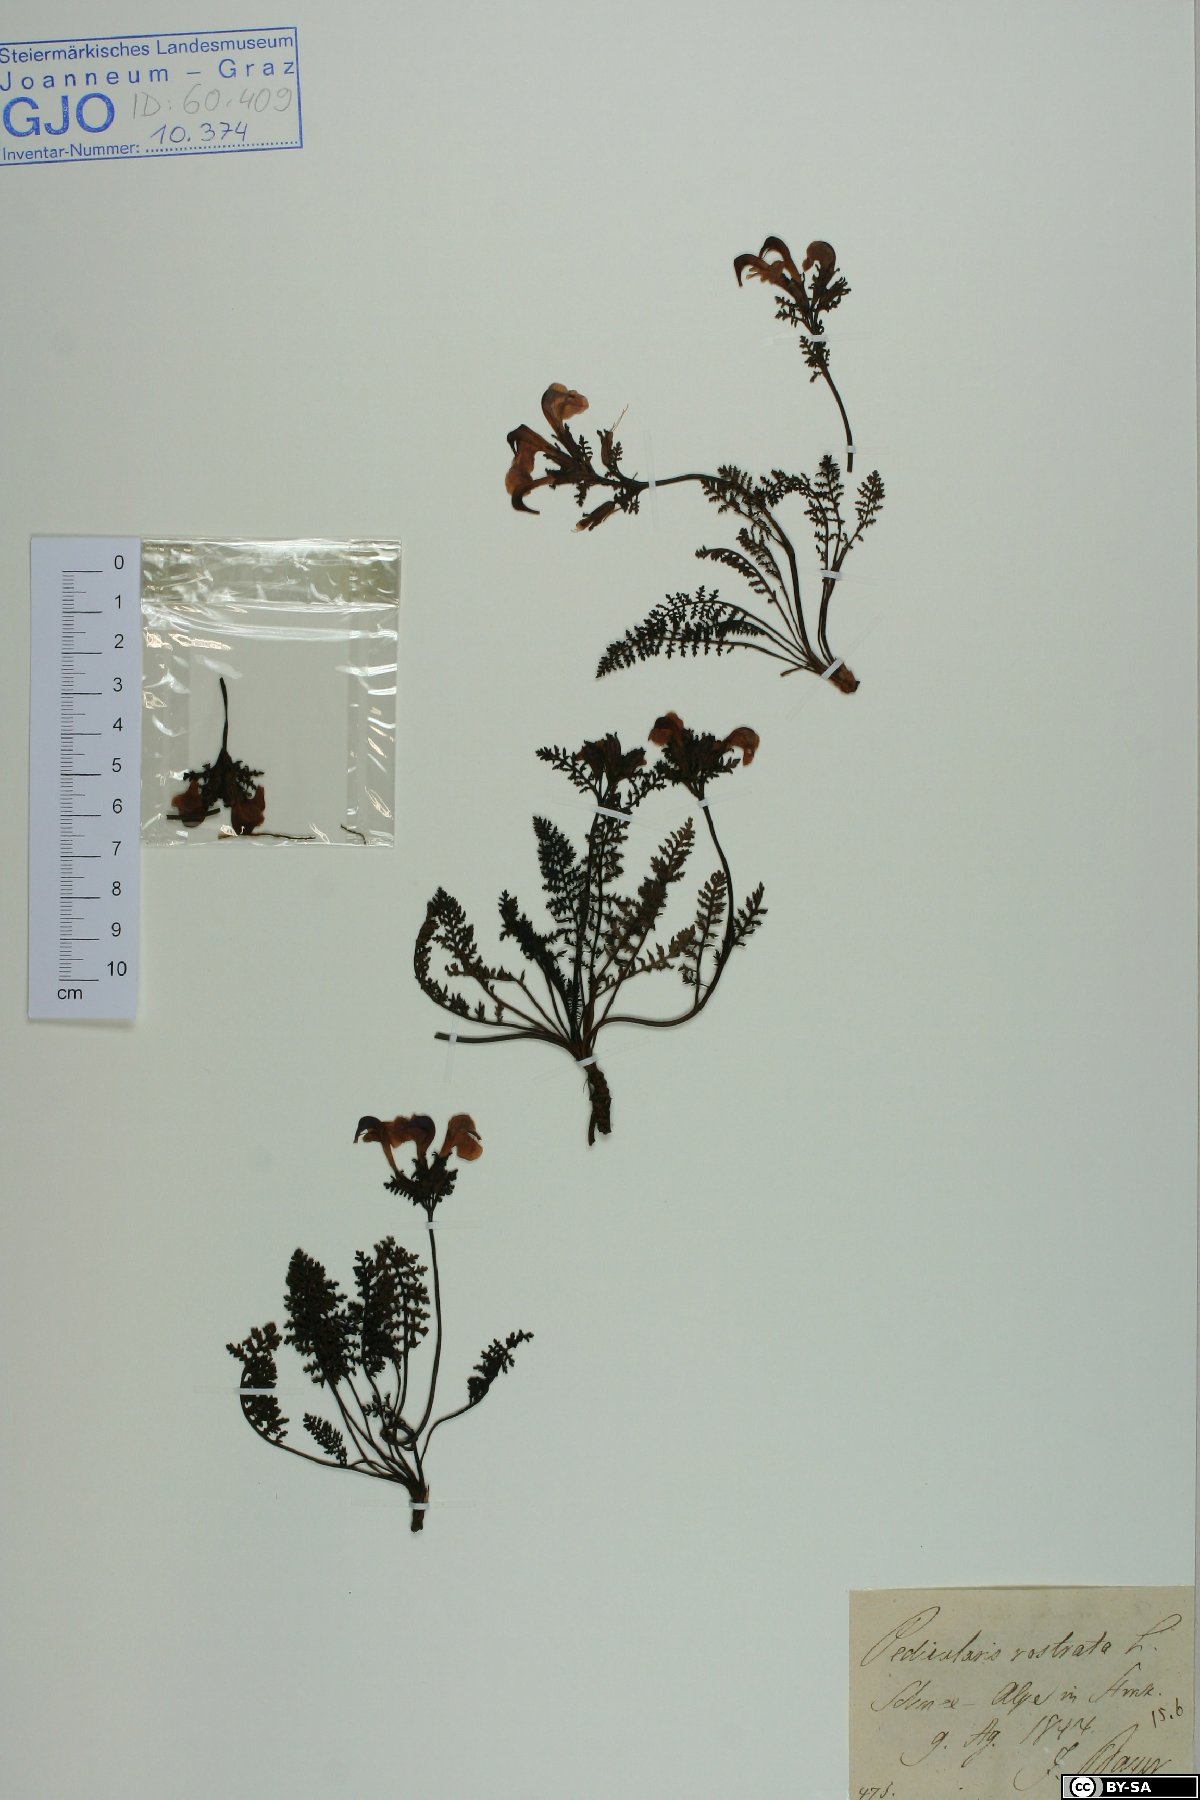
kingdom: Plantae
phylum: Tracheophyta
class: Magnoliopsida
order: Lamiales
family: Orobanchaceae
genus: Pedicularis
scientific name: Pedicularis rostratocapitata
